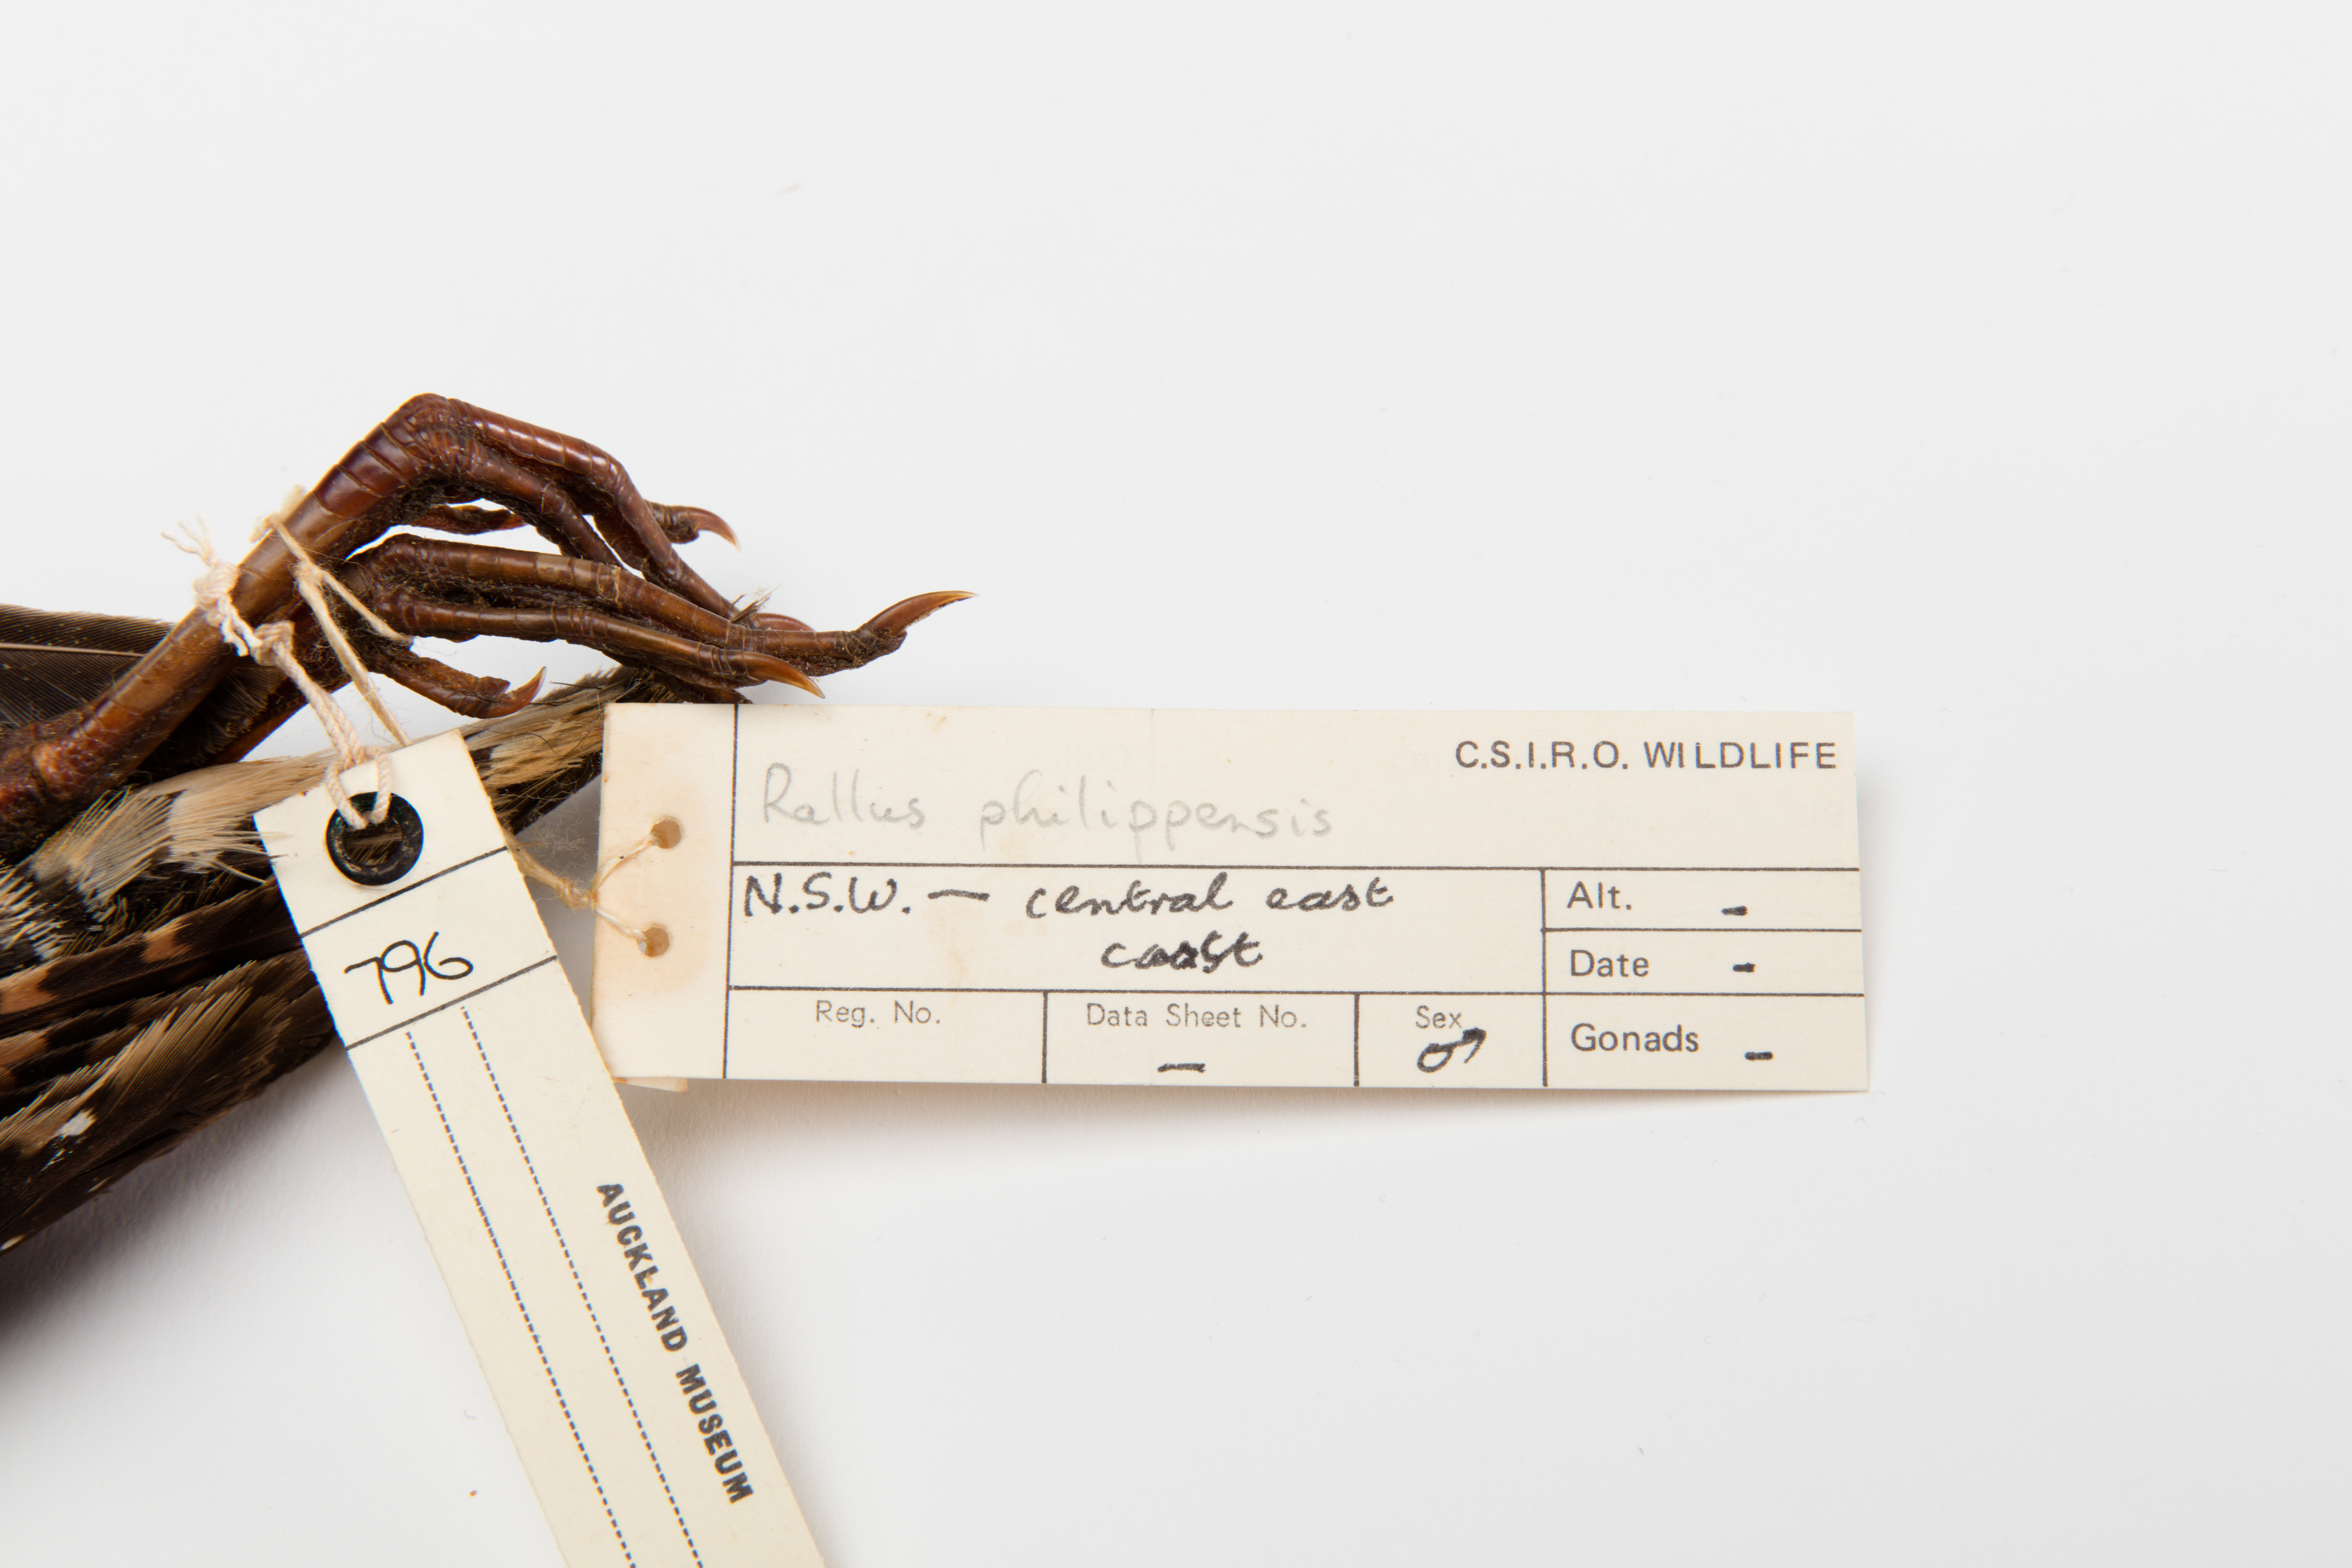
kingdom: Animalia
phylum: Chordata
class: Aves
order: Gruiformes
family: Rallidae
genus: Gallirallus
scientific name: Gallirallus philippensis
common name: Buff-banded rail
